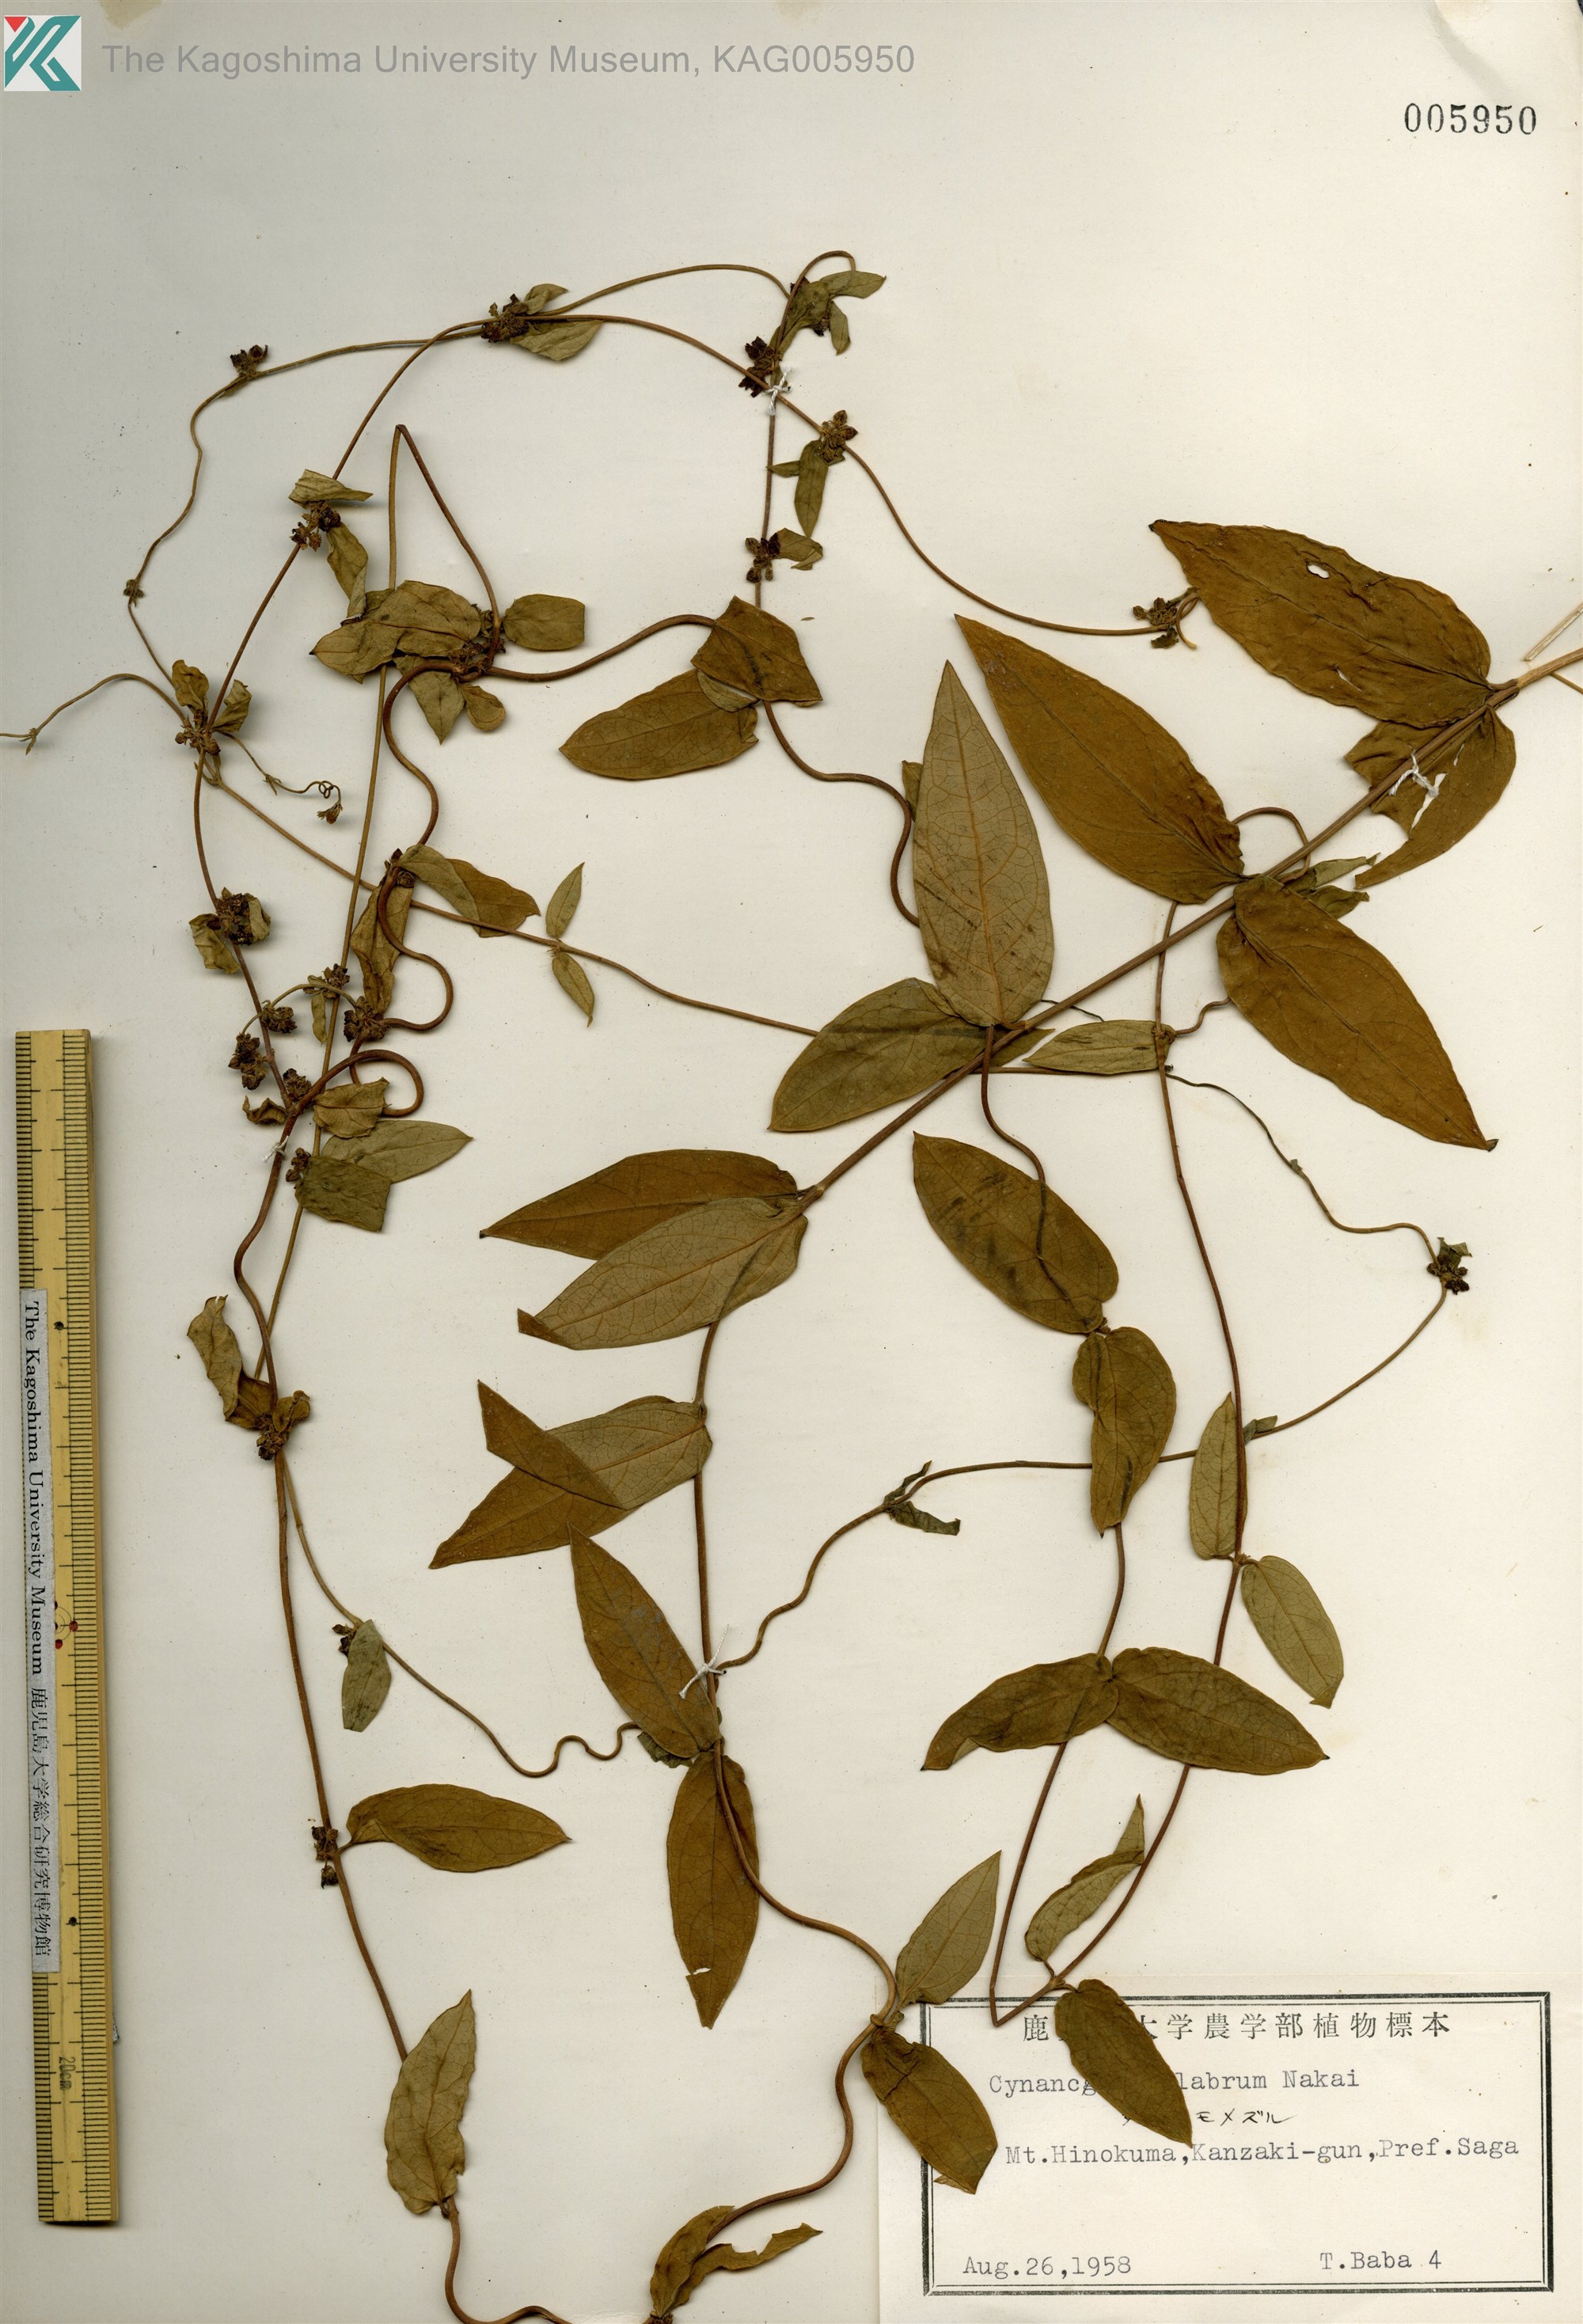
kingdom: Plantae
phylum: Tracheophyta
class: Magnoliopsida
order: Gentianales
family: Apocynaceae
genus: Vincetoxicum
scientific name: Vincetoxicum nipponicum
